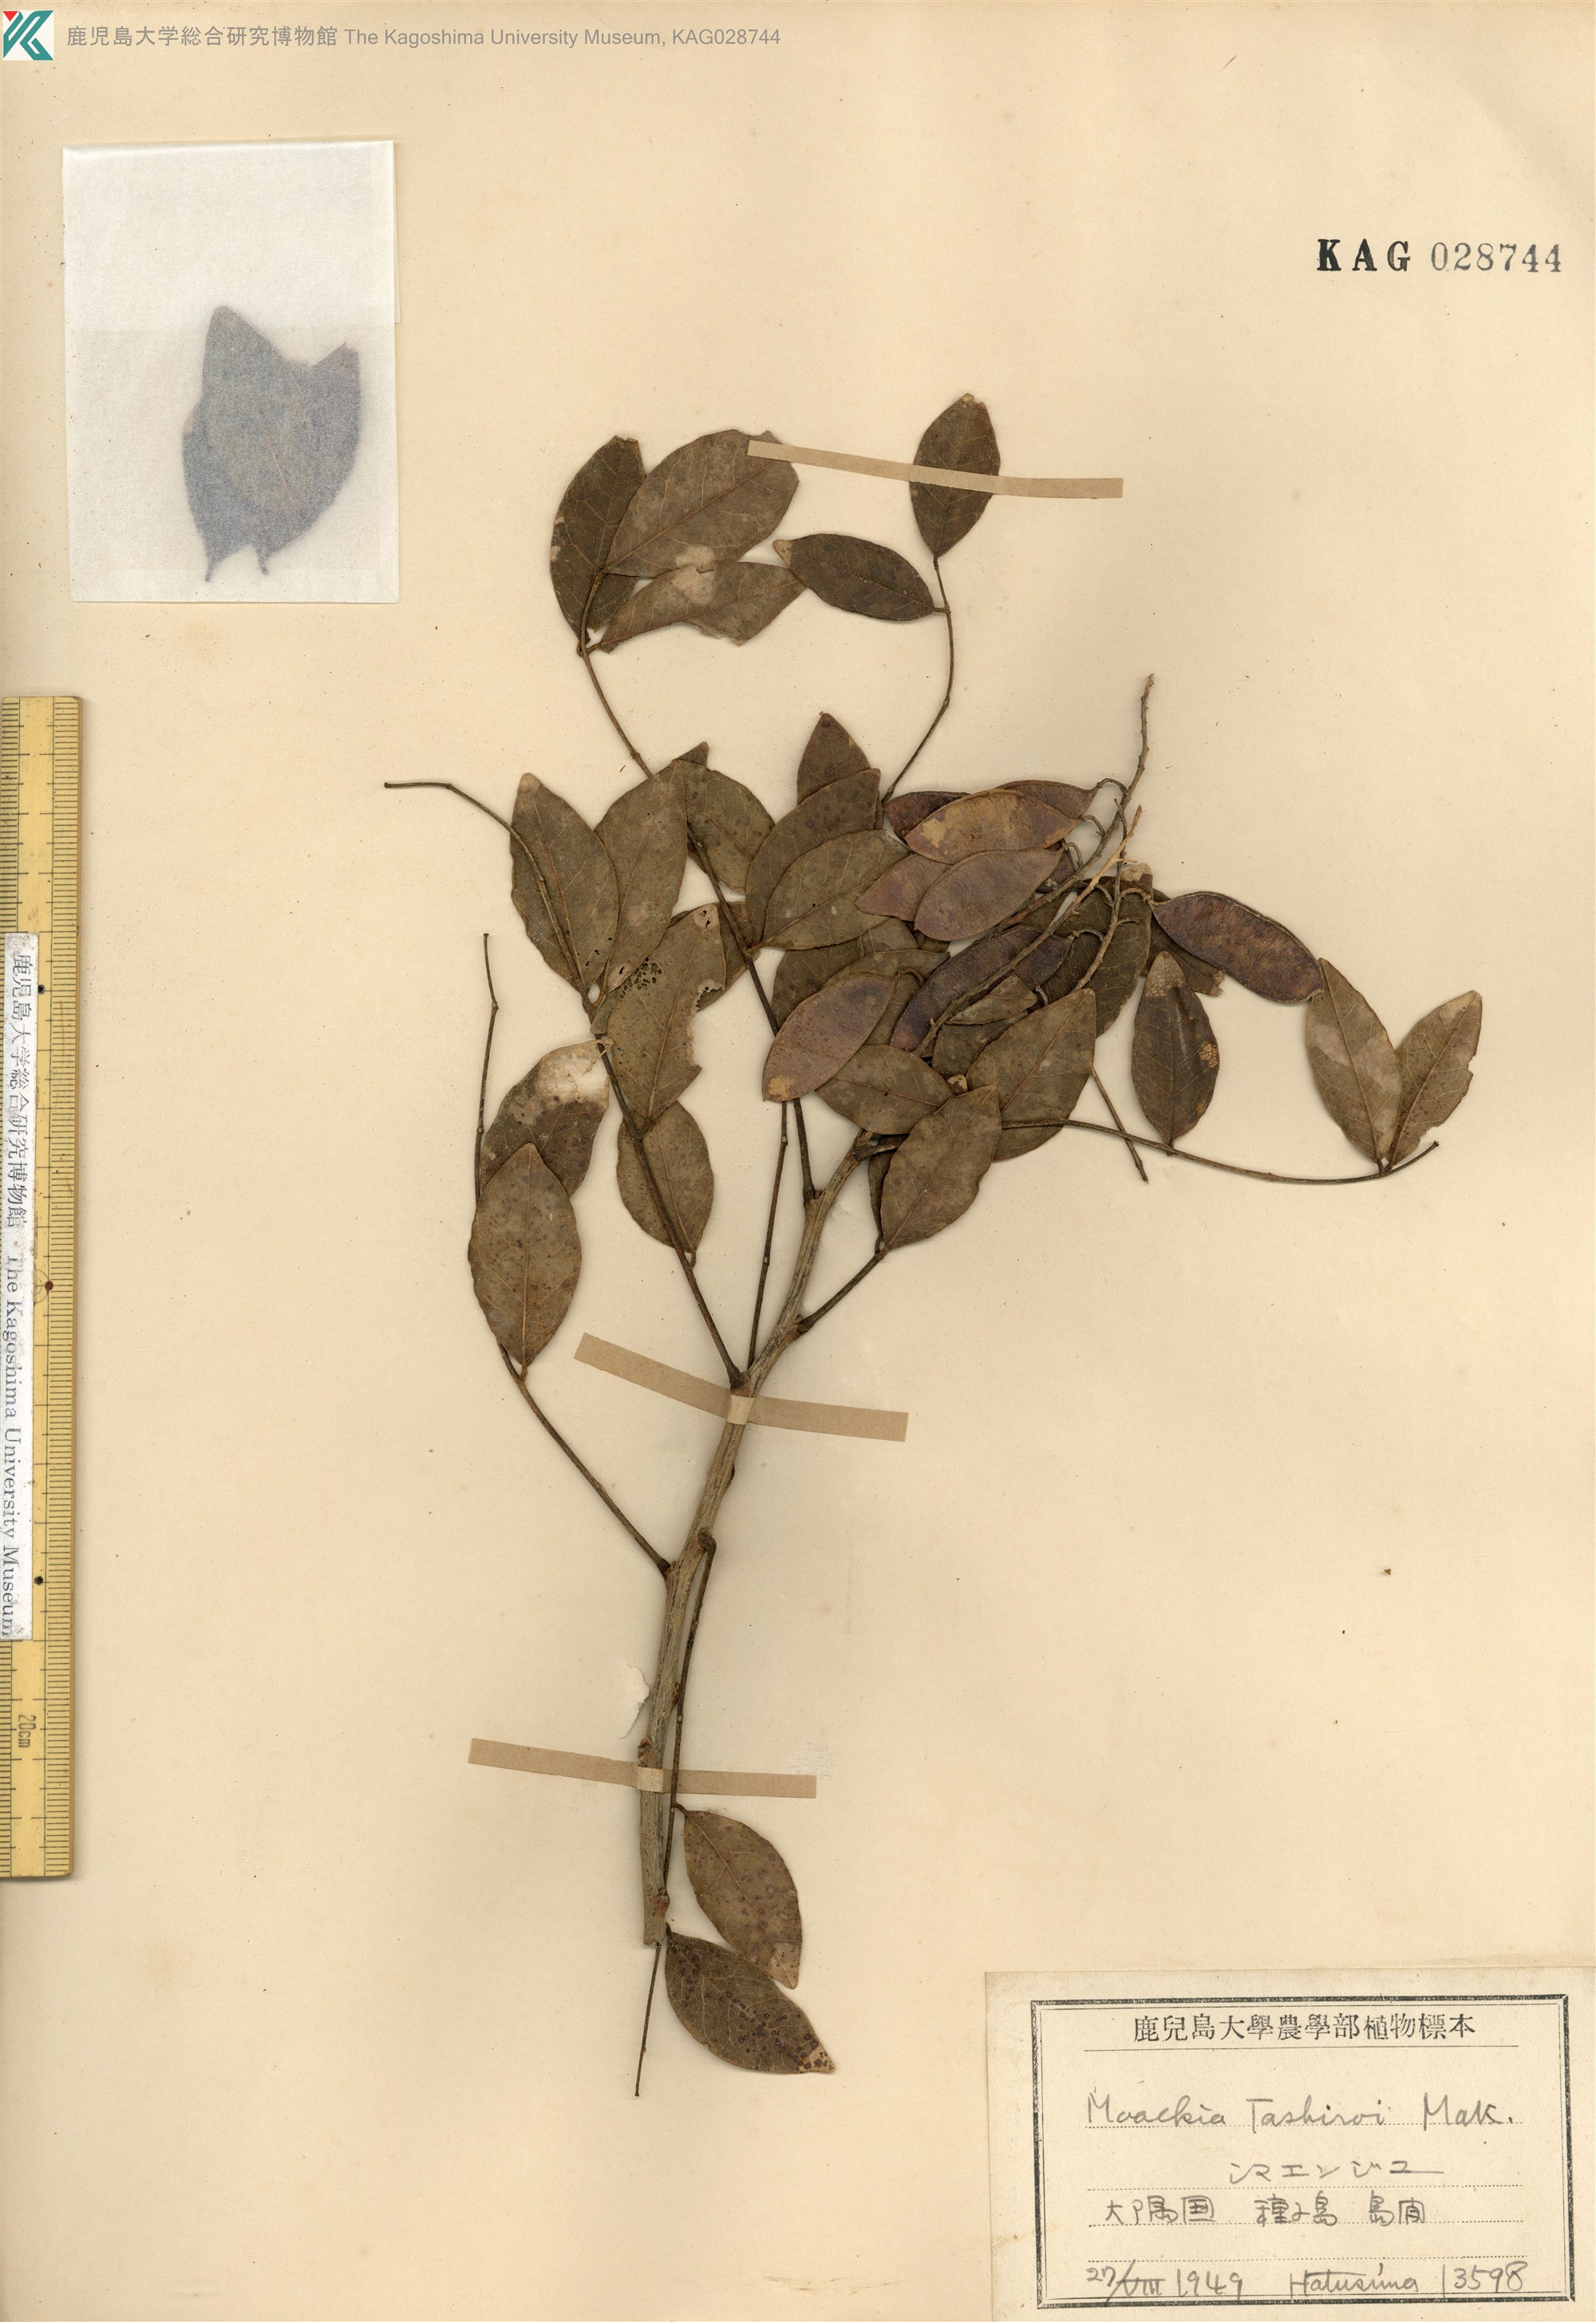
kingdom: Plantae
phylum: Tracheophyta
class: Magnoliopsida
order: Fabales
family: Fabaceae
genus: Maackia
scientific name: Maackia tashiroi
